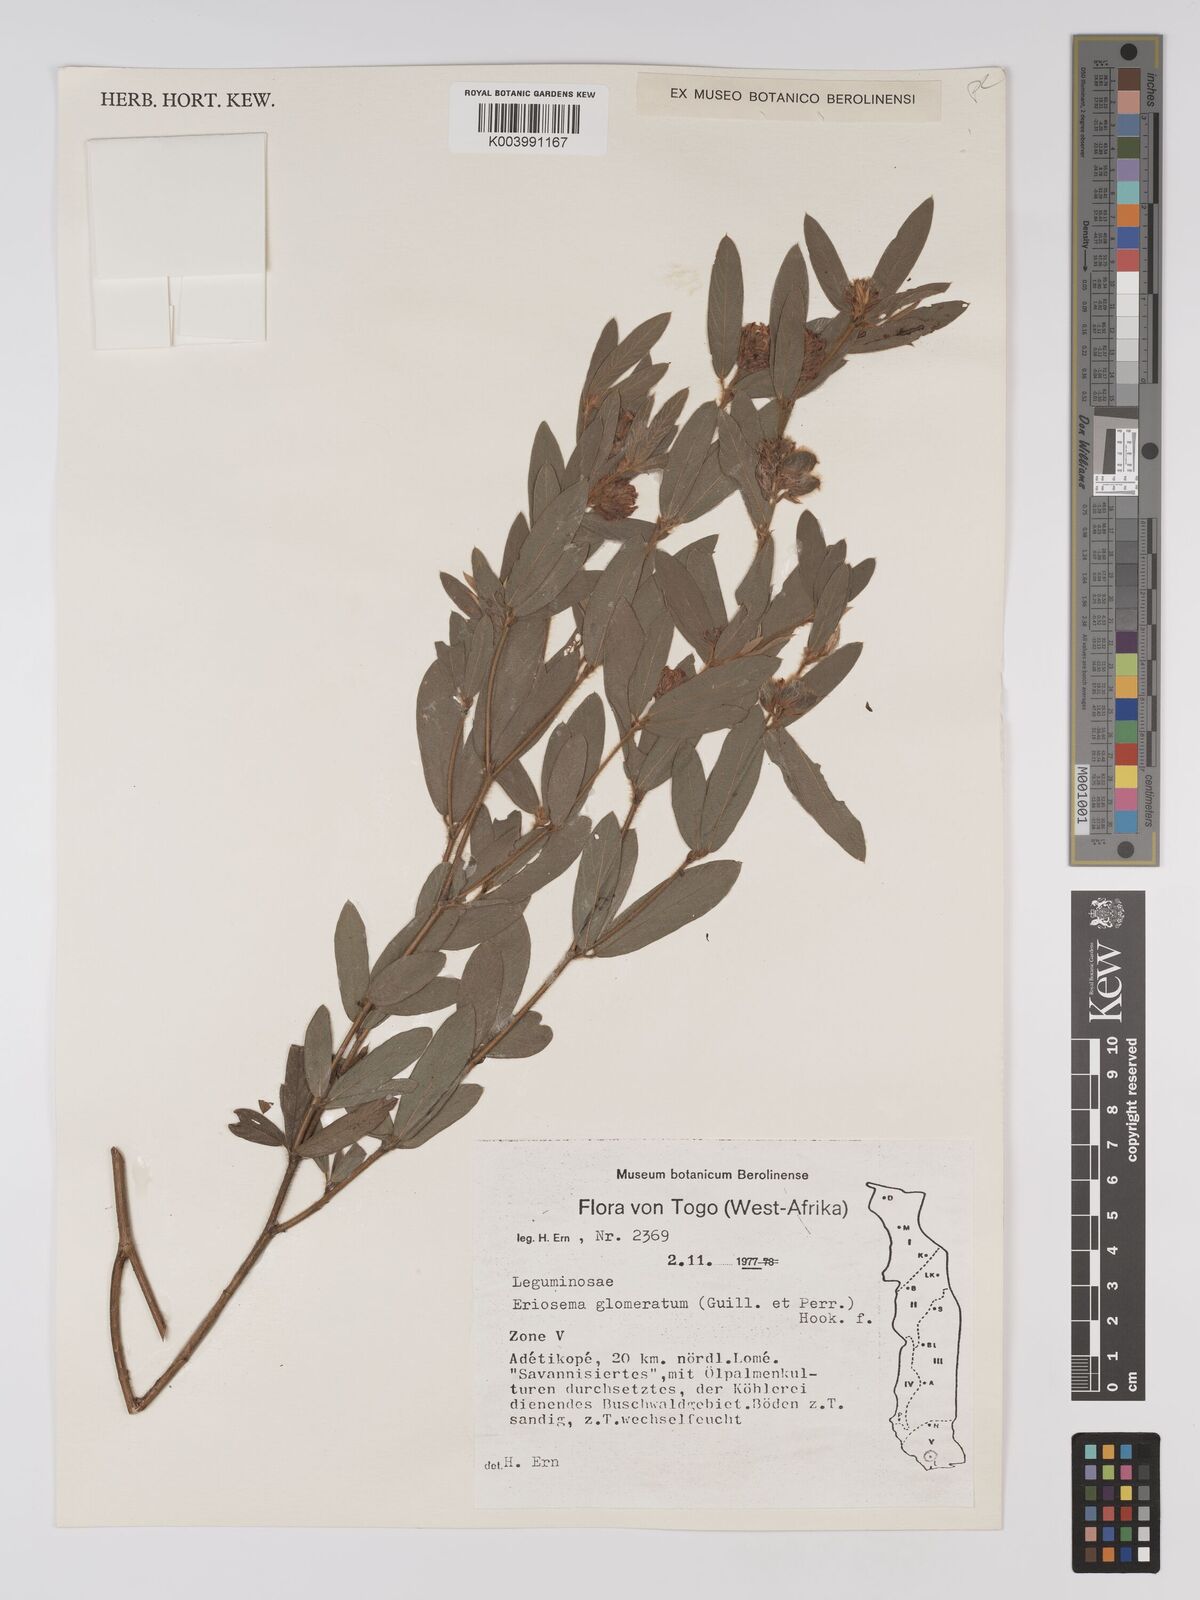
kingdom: Plantae
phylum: Tracheophyta
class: Magnoliopsida
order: Fabales
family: Fabaceae
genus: Eriosema
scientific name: Eriosema glomeratum
